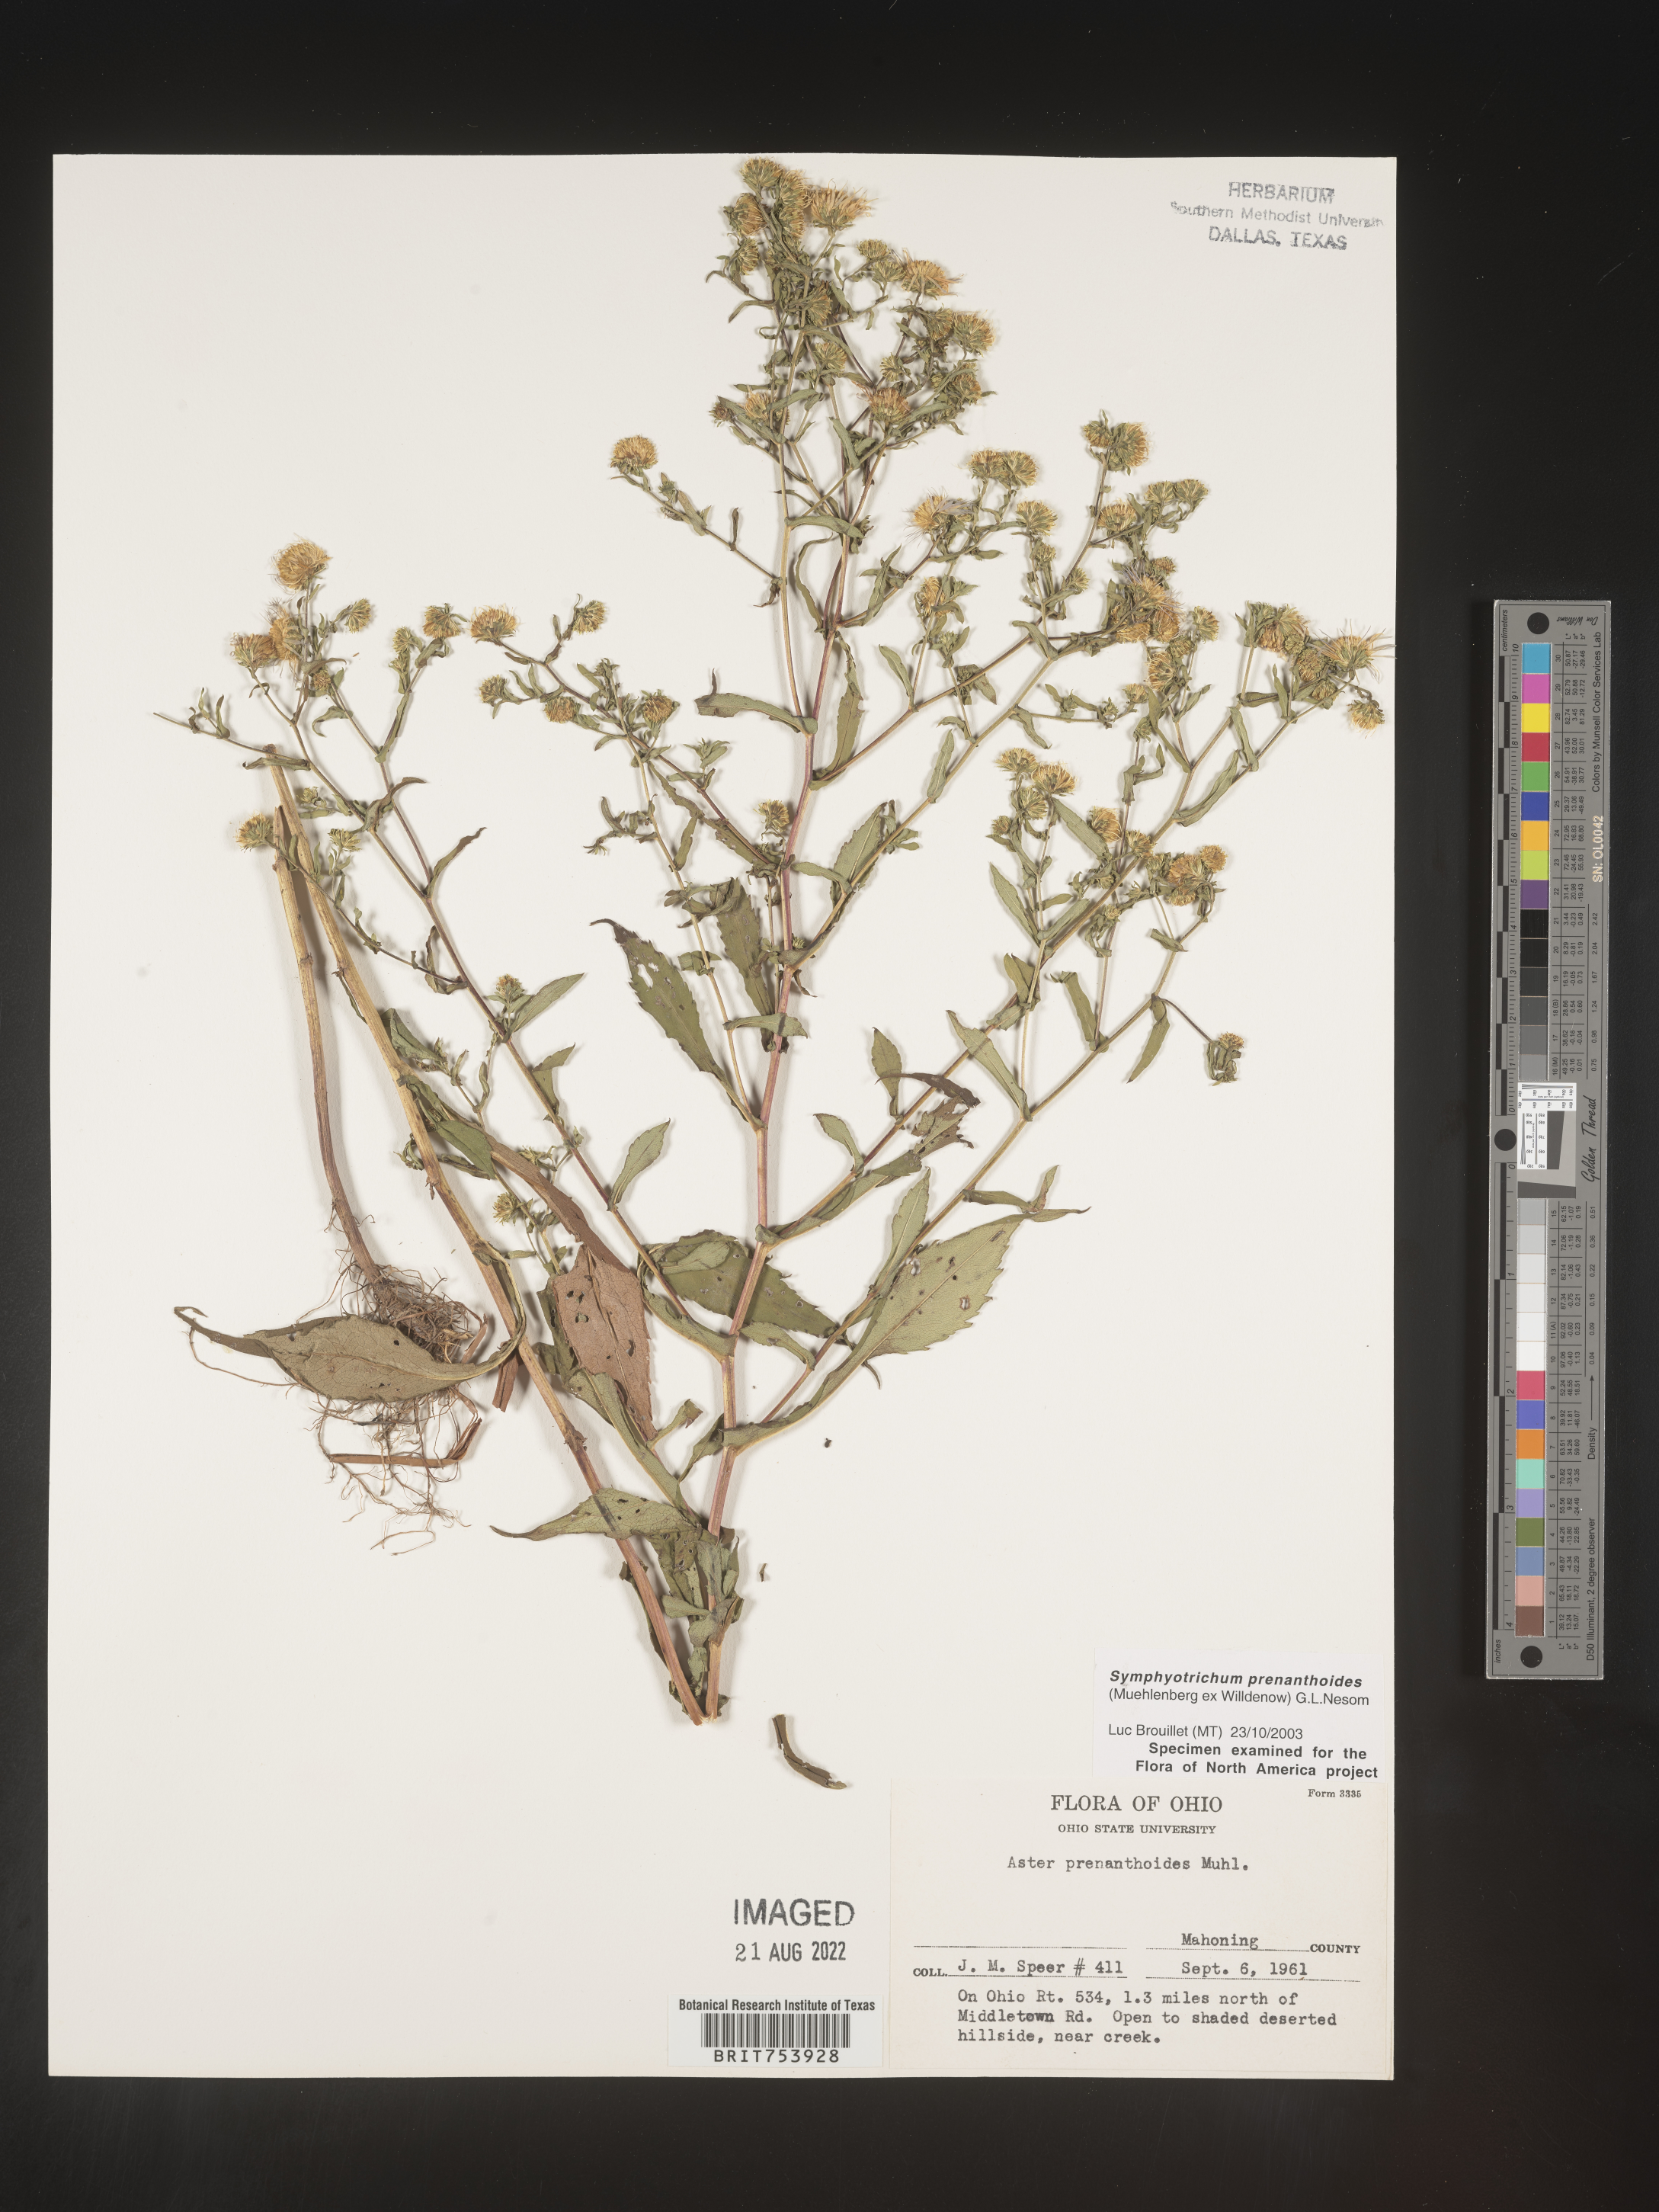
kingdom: Plantae
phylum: Tracheophyta
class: Magnoliopsida
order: Asterales
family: Asteraceae
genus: Symphyotrichum
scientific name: Symphyotrichum prenanthoides
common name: Crooked-stem aster
